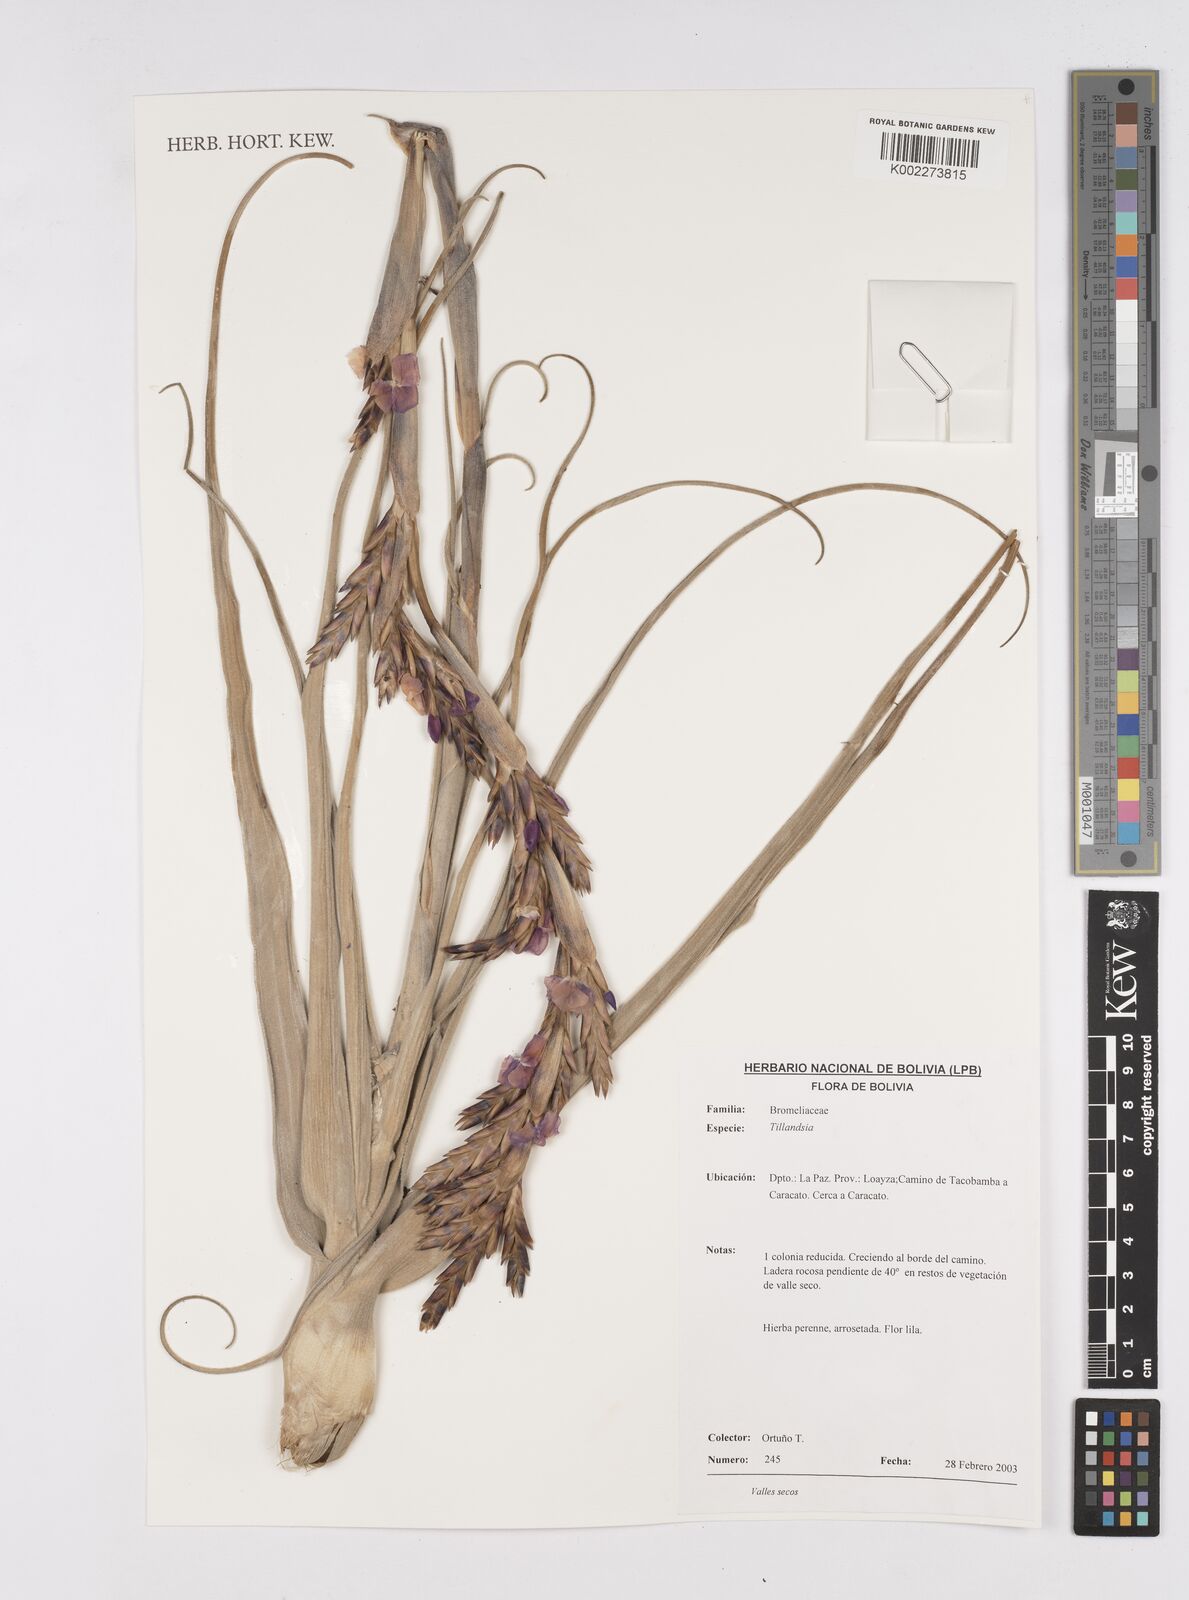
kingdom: Plantae
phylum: Tracheophyta
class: Liliopsida
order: Poales
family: Bromeliaceae
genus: Tillandsia
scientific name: Tillandsia
